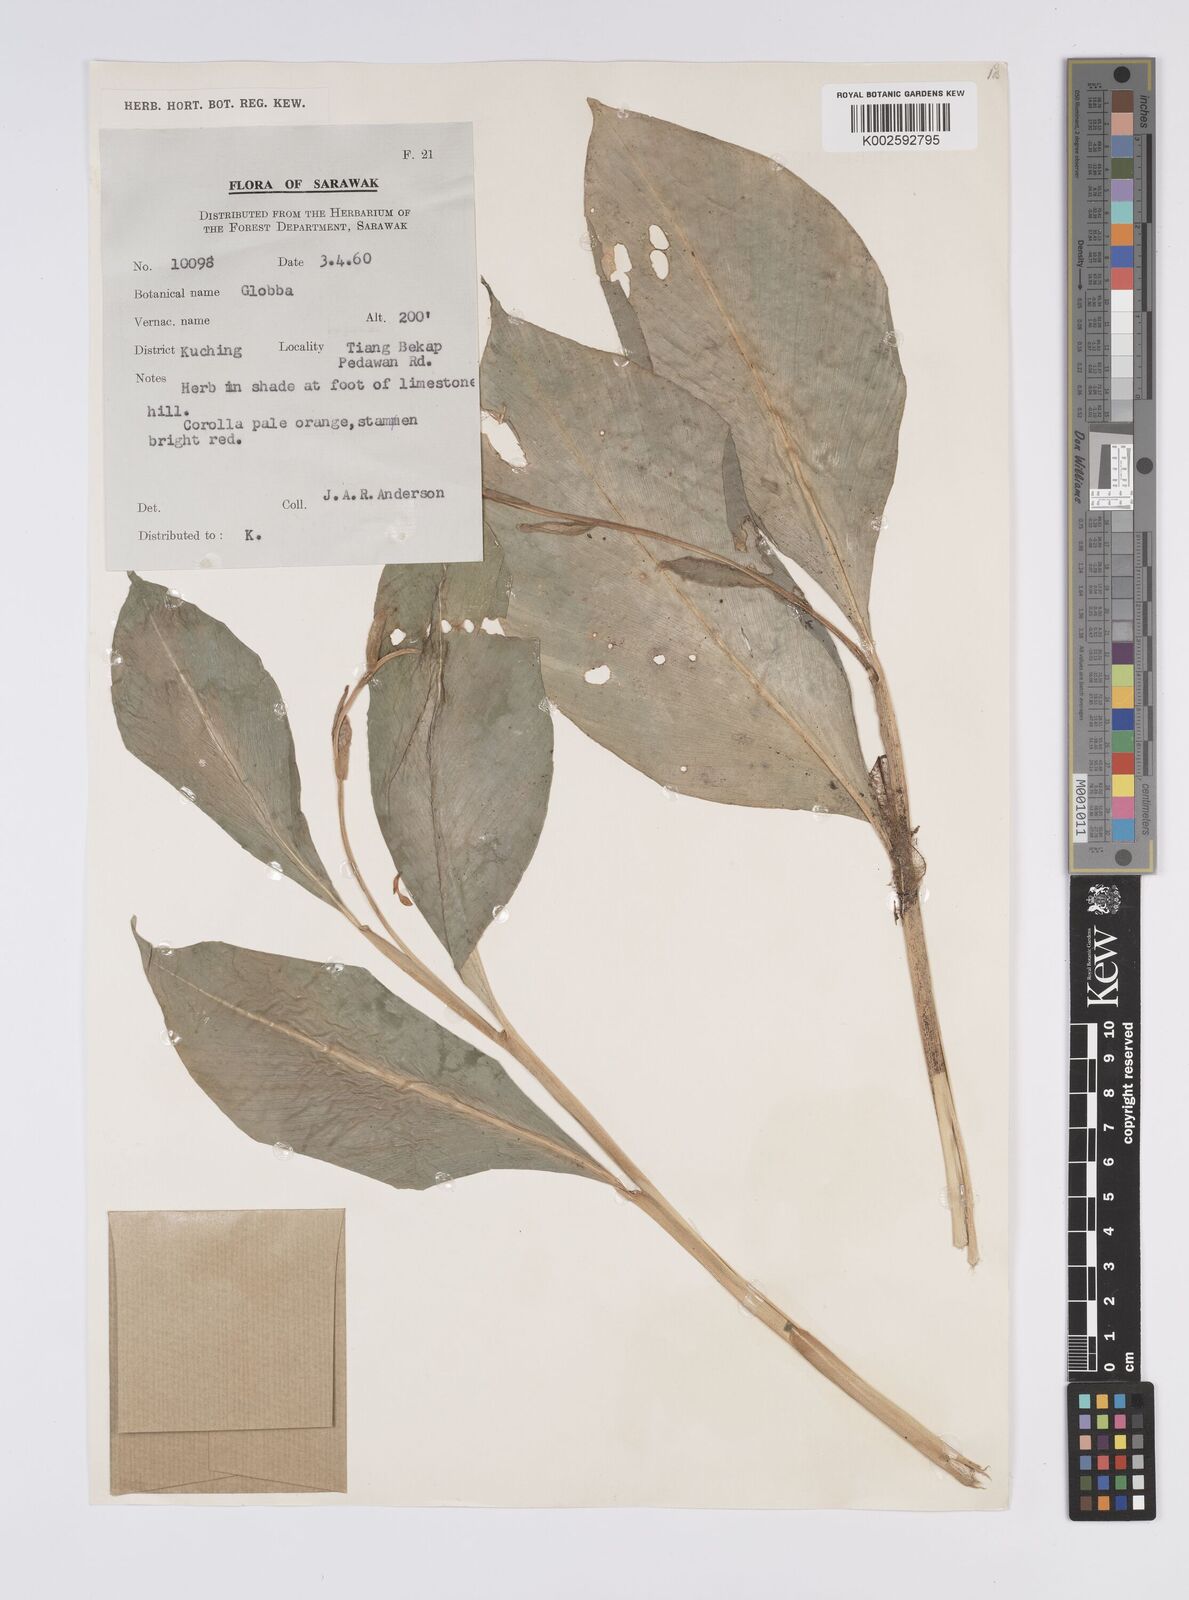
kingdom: Plantae
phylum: Tracheophyta
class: Liliopsida
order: Zingiberales
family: Zingiberaceae
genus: Globba
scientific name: Globba atrosanguinea
